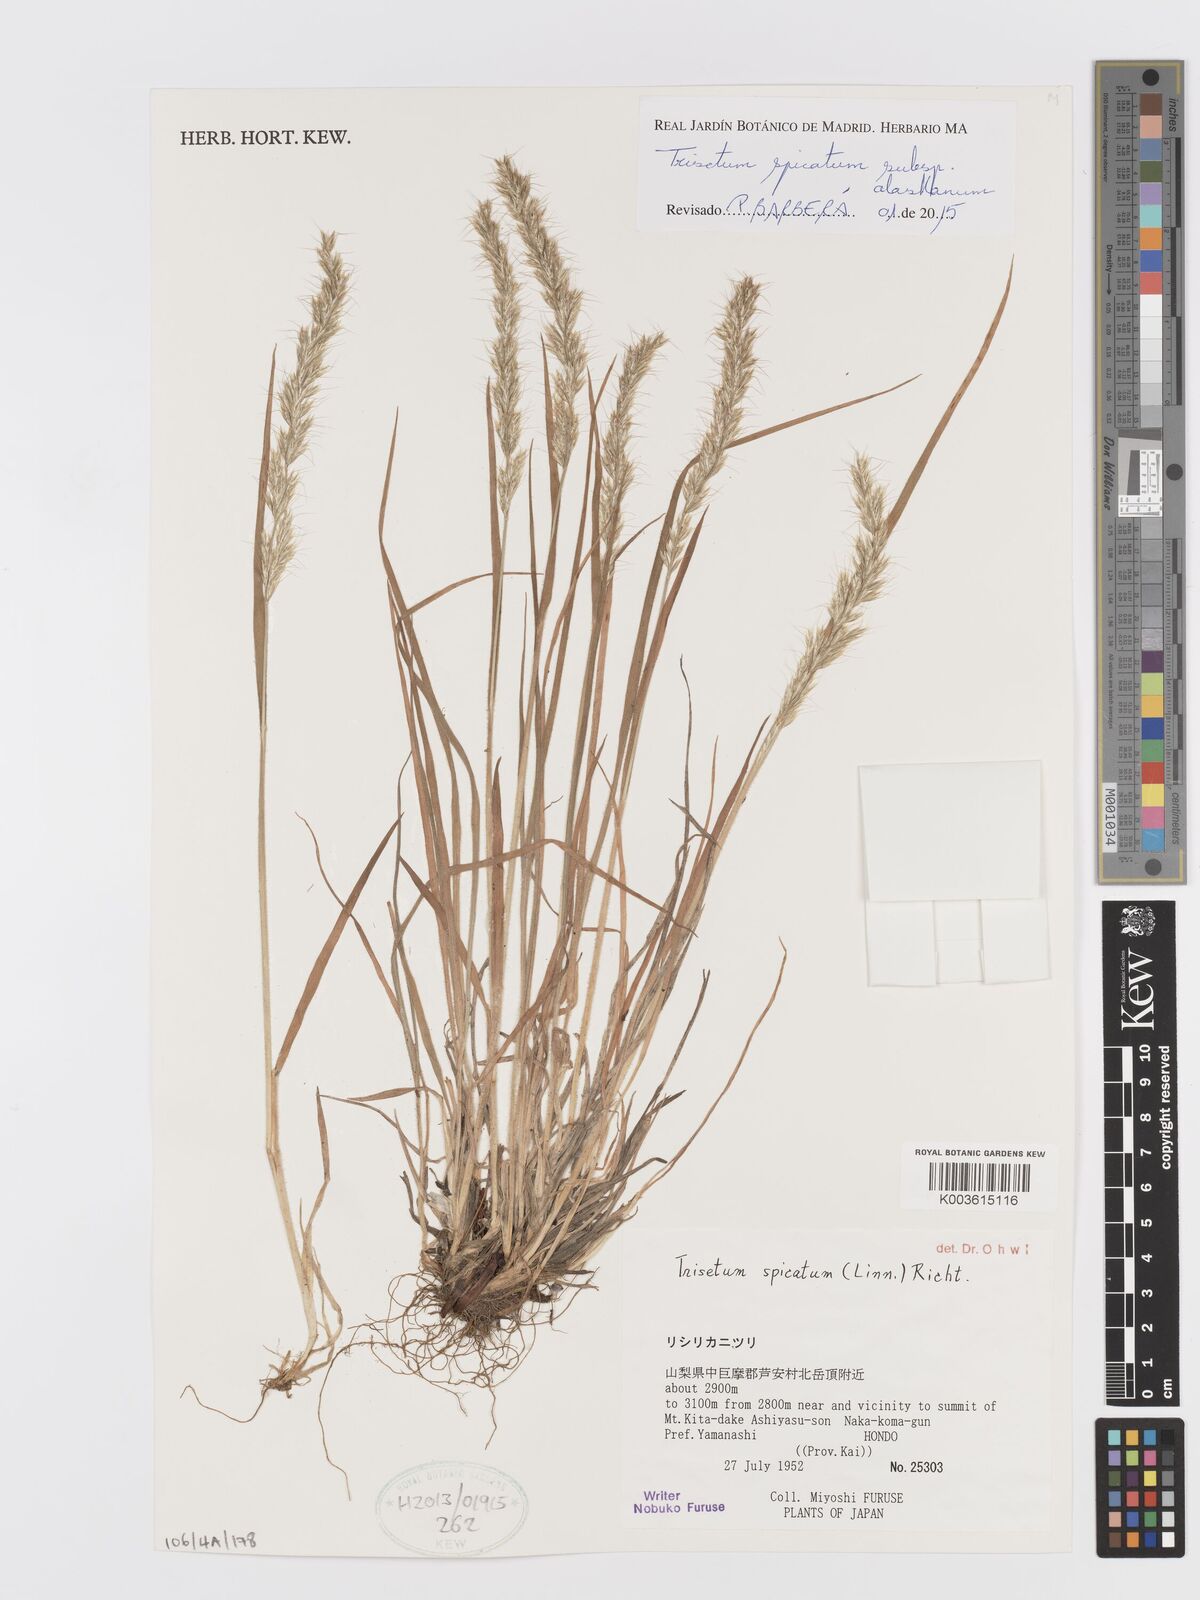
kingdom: Plantae
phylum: Tracheophyta
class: Liliopsida
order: Poales
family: Poaceae
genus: Koeleria
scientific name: Koeleria spicata
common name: Mountain trisetum
